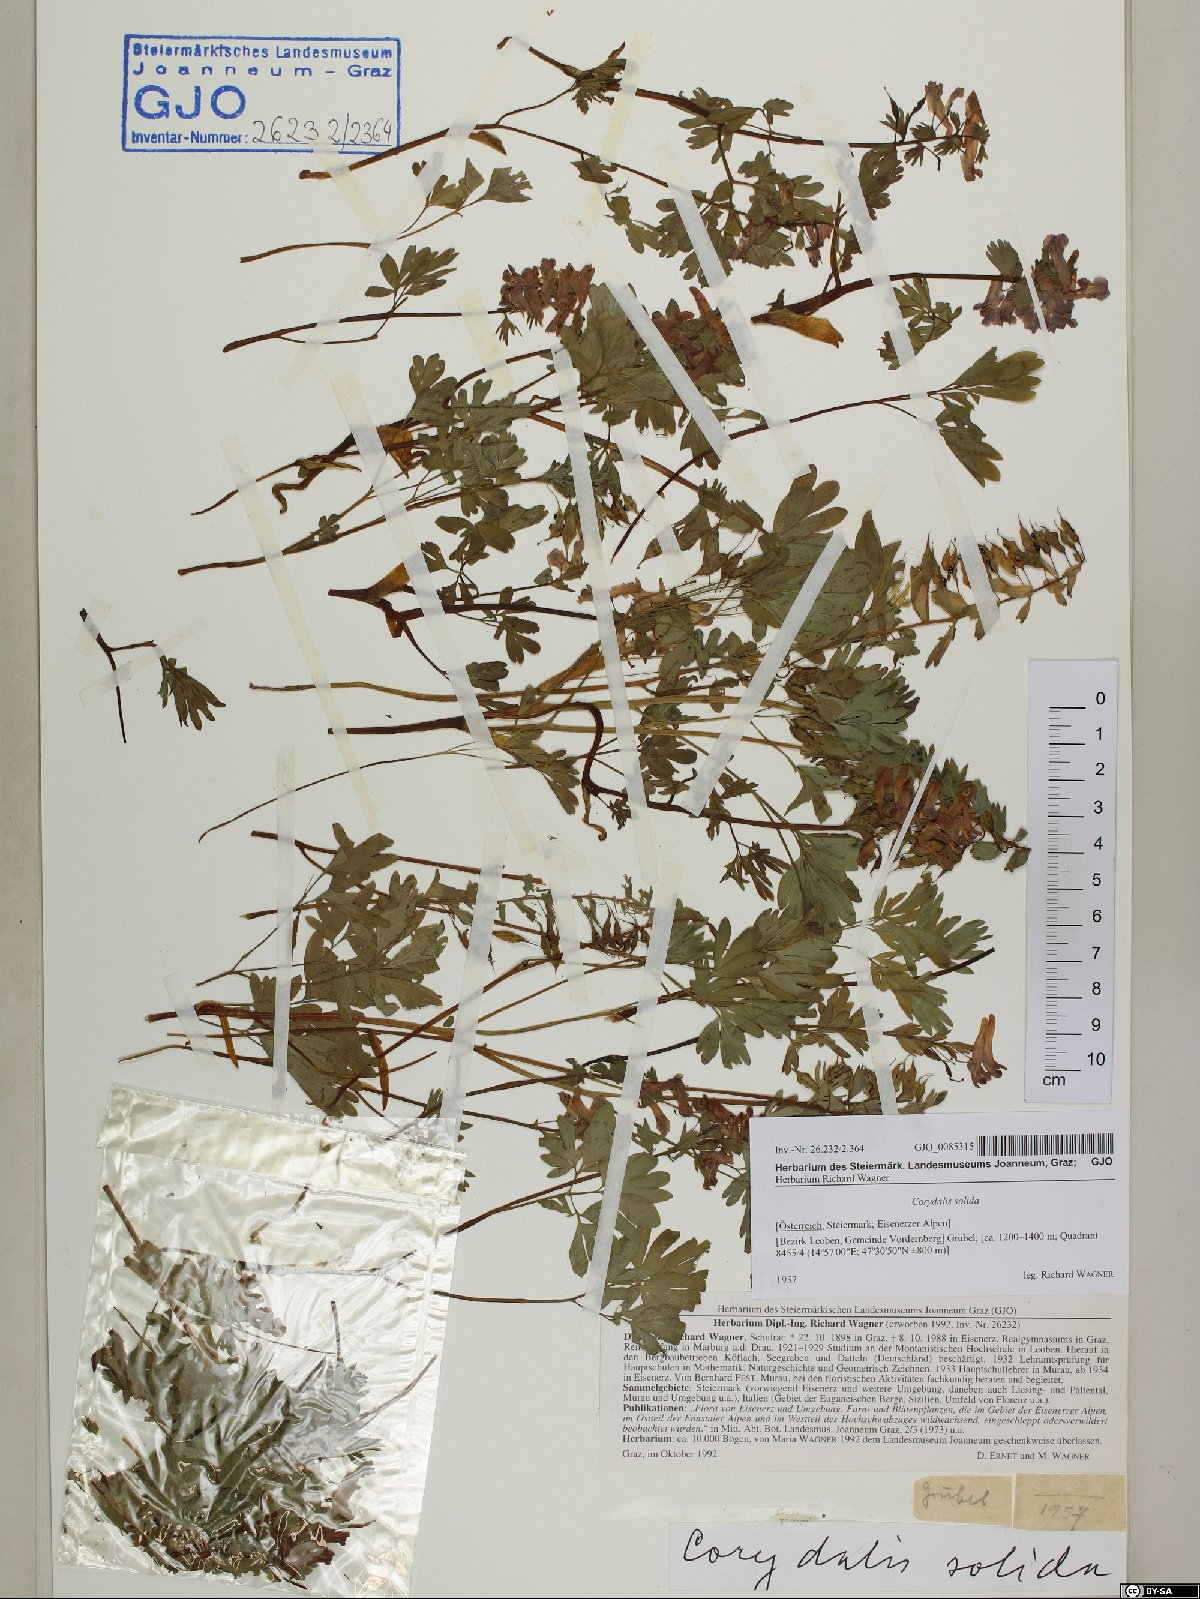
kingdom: Plantae
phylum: Tracheophyta
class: Magnoliopsida
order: Ranunculales
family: Papaveraceae
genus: Corydalis
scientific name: Corydalis solida
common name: Bird-in-a-bush
